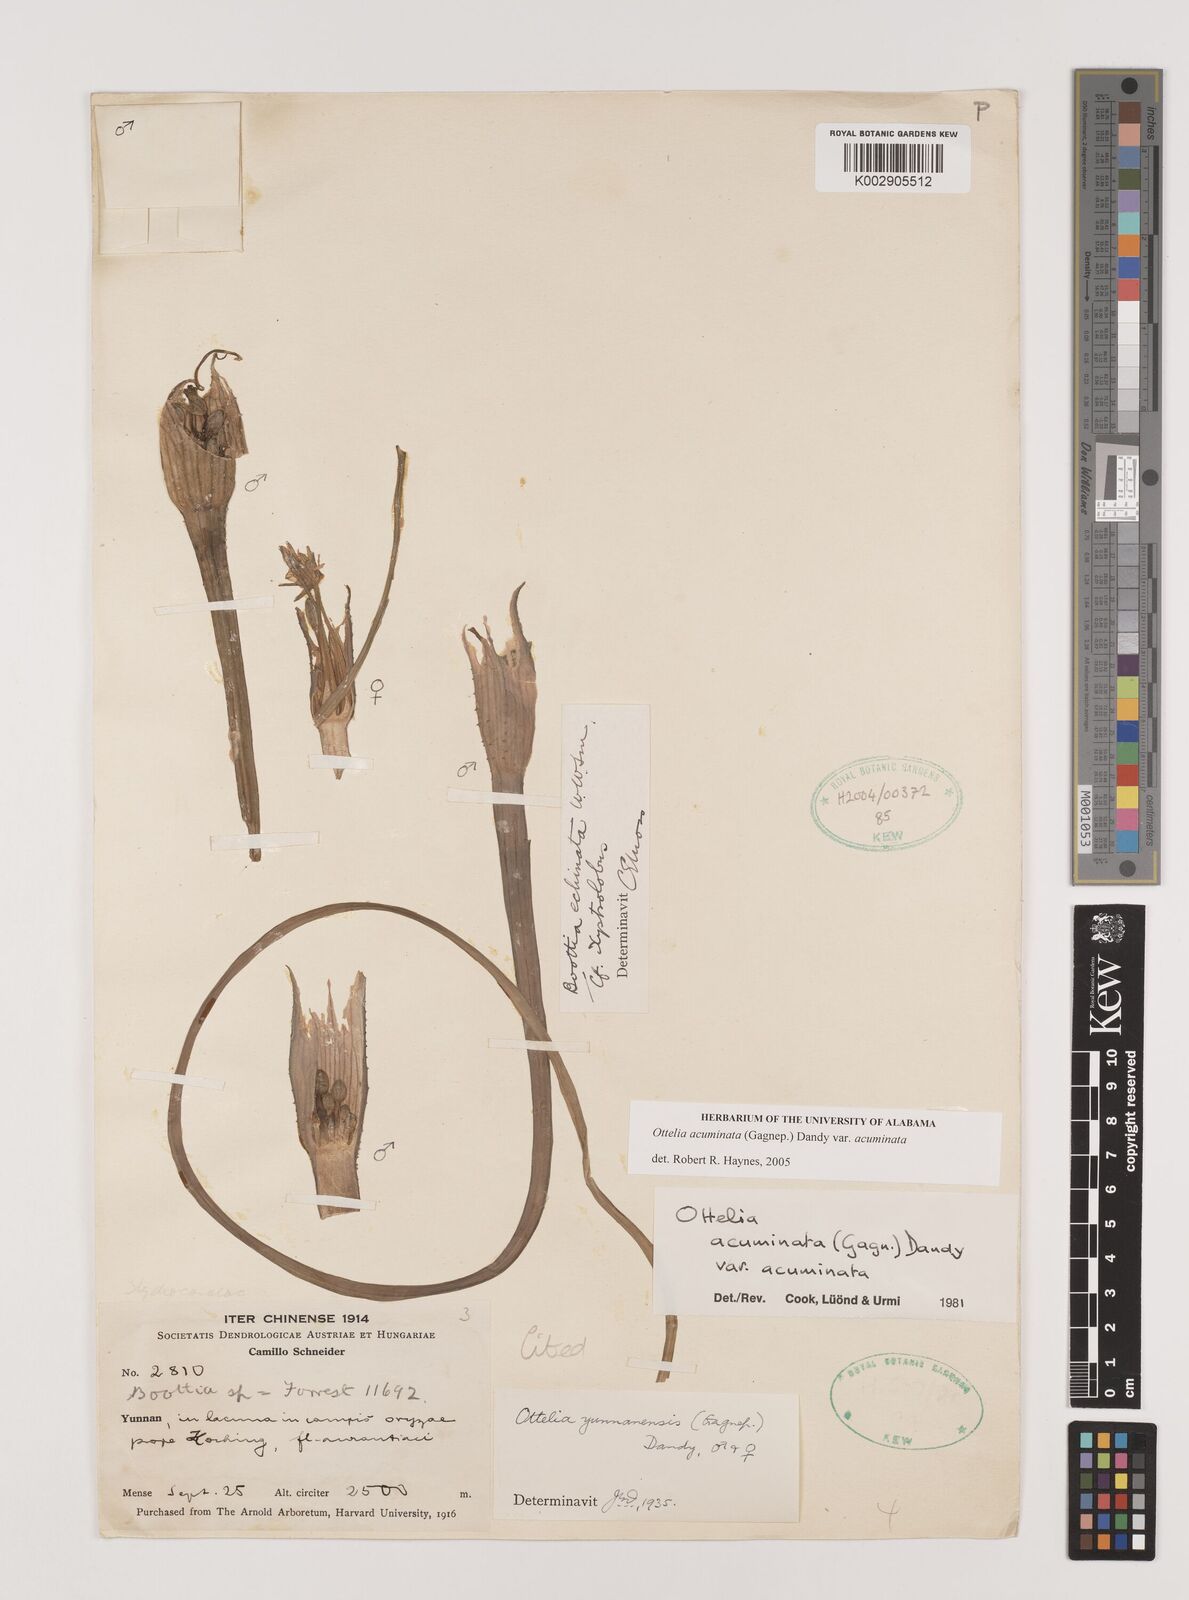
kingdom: Plantae
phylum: Tracheophyta
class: Liliopsida
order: Alismatales
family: Hydrocharitaceae
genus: Ottelia
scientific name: Ottelia acuminata
